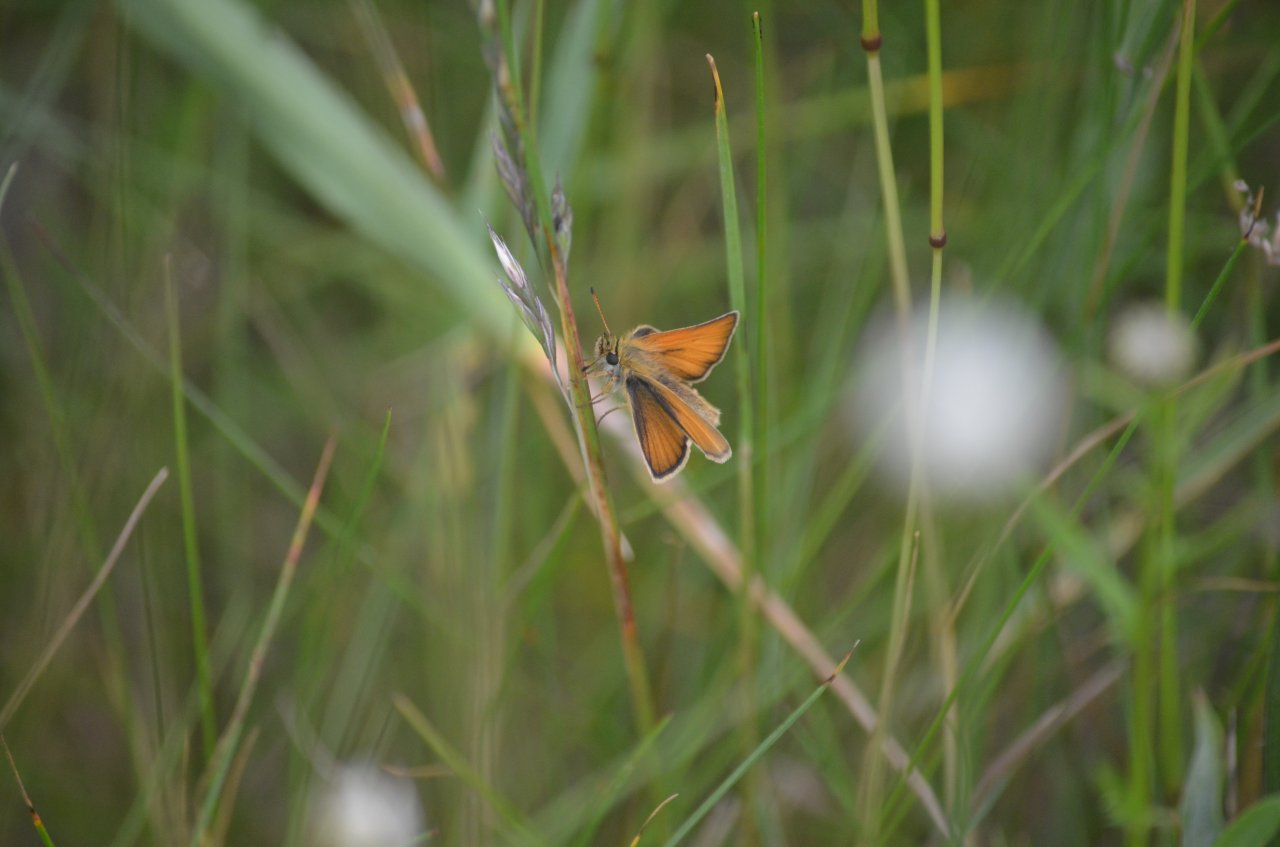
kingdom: Animalia
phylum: Arthropoda
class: Insecta
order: Lepidoptera
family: Hesperiidae
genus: Thymelicus
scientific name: Thymelicus lineola
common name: European Skipper
